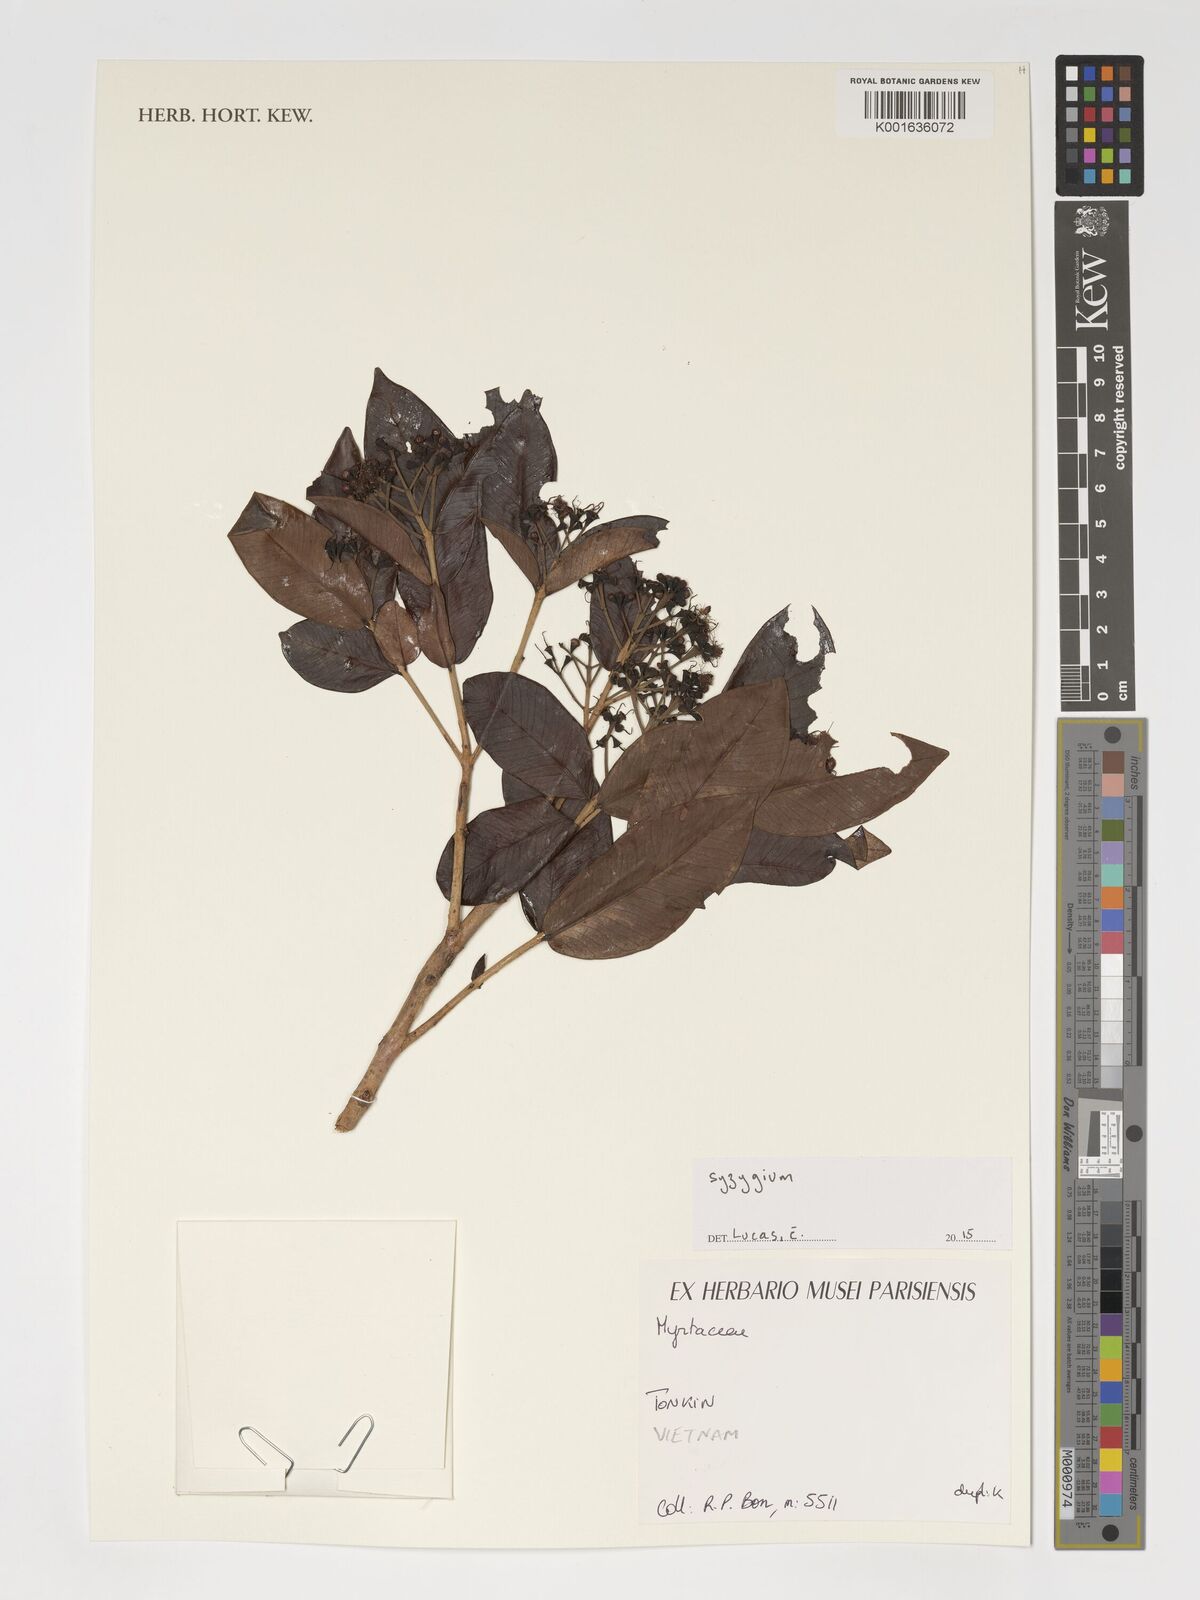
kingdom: Plantae
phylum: Tracheophyta
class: Magnoliopsida
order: Myrtales
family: Myrtaceae
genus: Syzygium
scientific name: Syzygium
